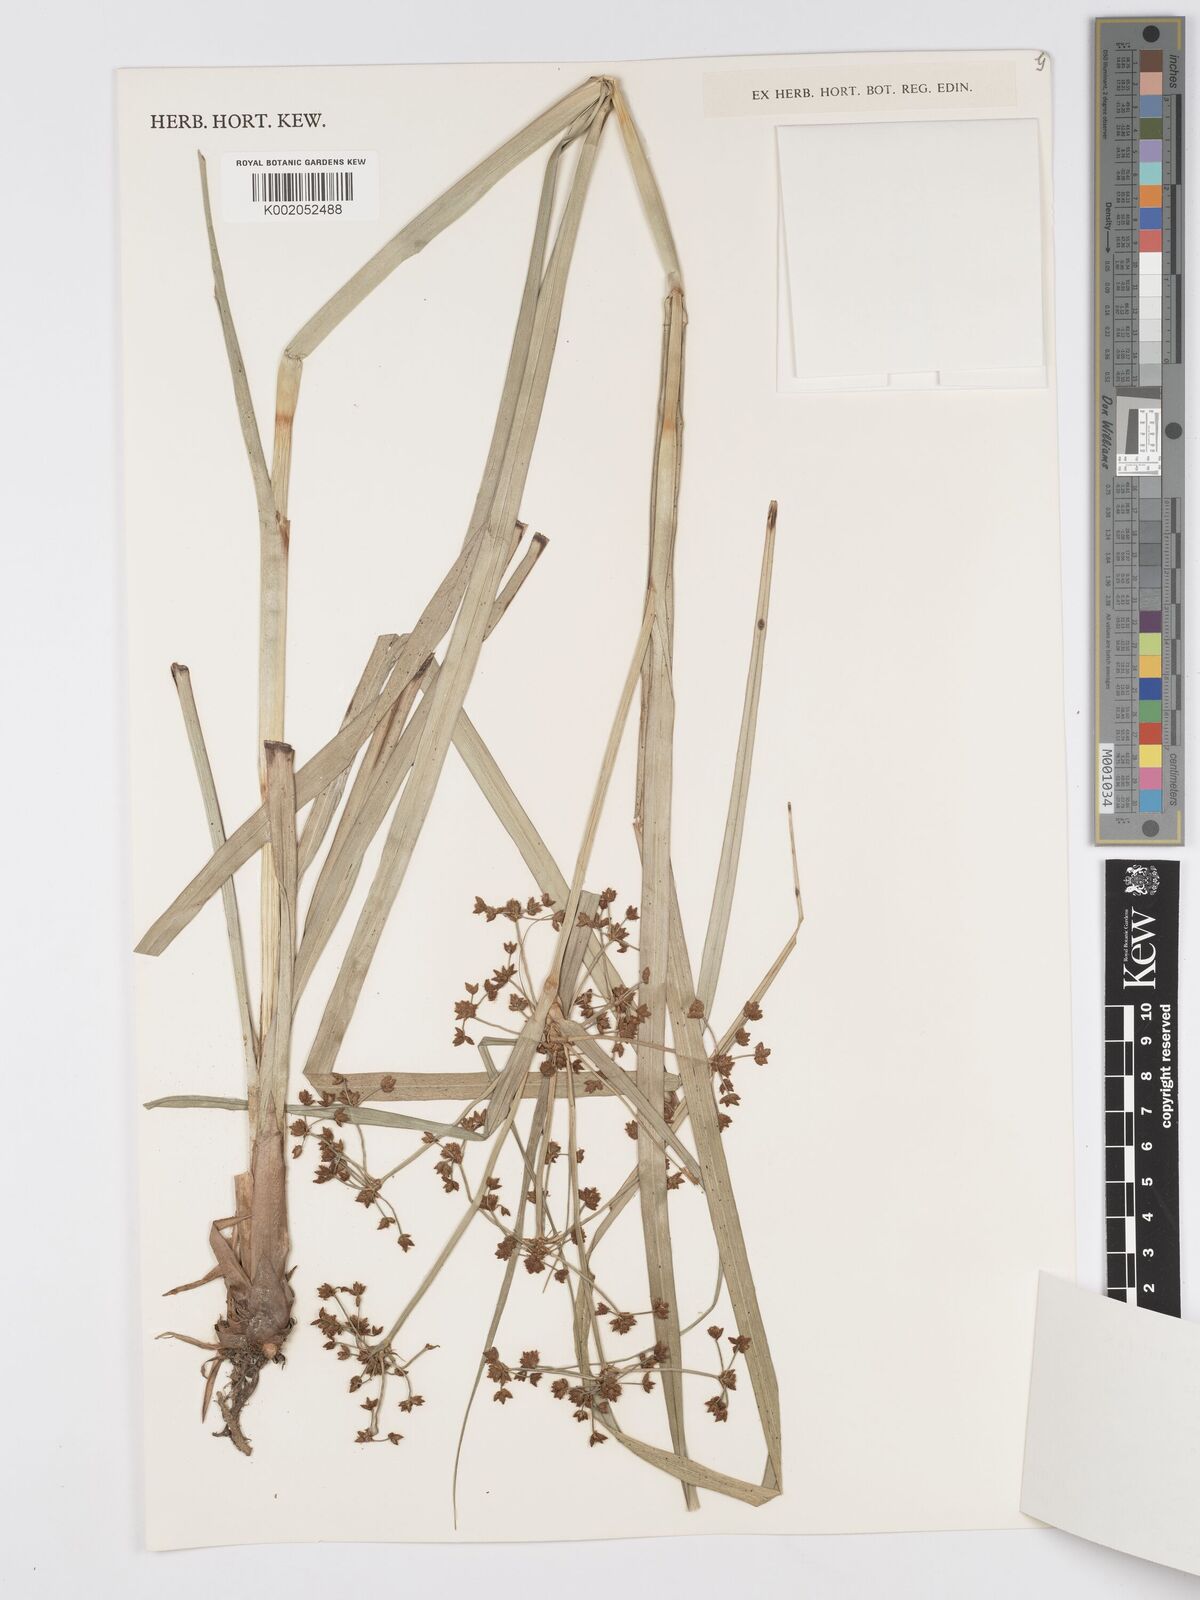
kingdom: Plantae
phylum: Tracheophyta
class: Liliopsida
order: Poales
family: Cyperaceae
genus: Scirpus
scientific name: Scirpus rosthornii
